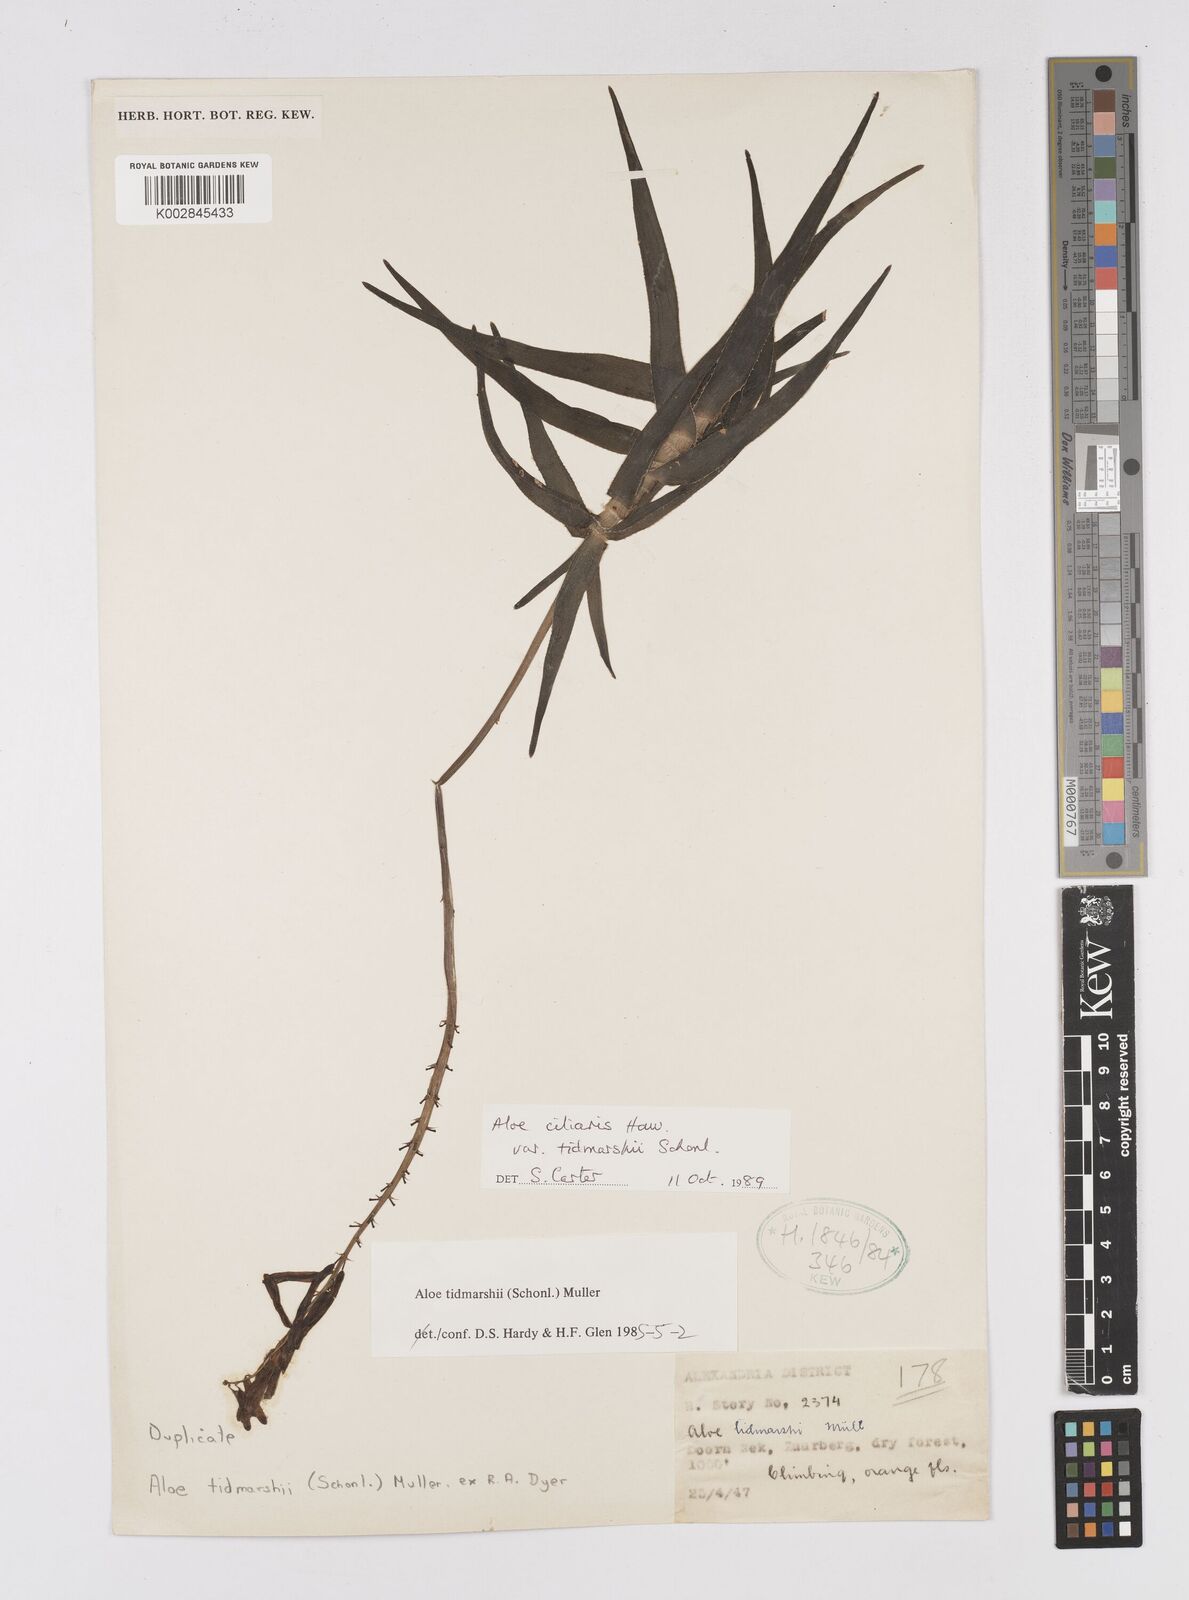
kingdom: Plantae
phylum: Tracheophyta
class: Liliopsida
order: Asparagales
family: Asphodelaceae
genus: Aloiampelos
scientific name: Aloiampelos ciliaris
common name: Climbing aloe
